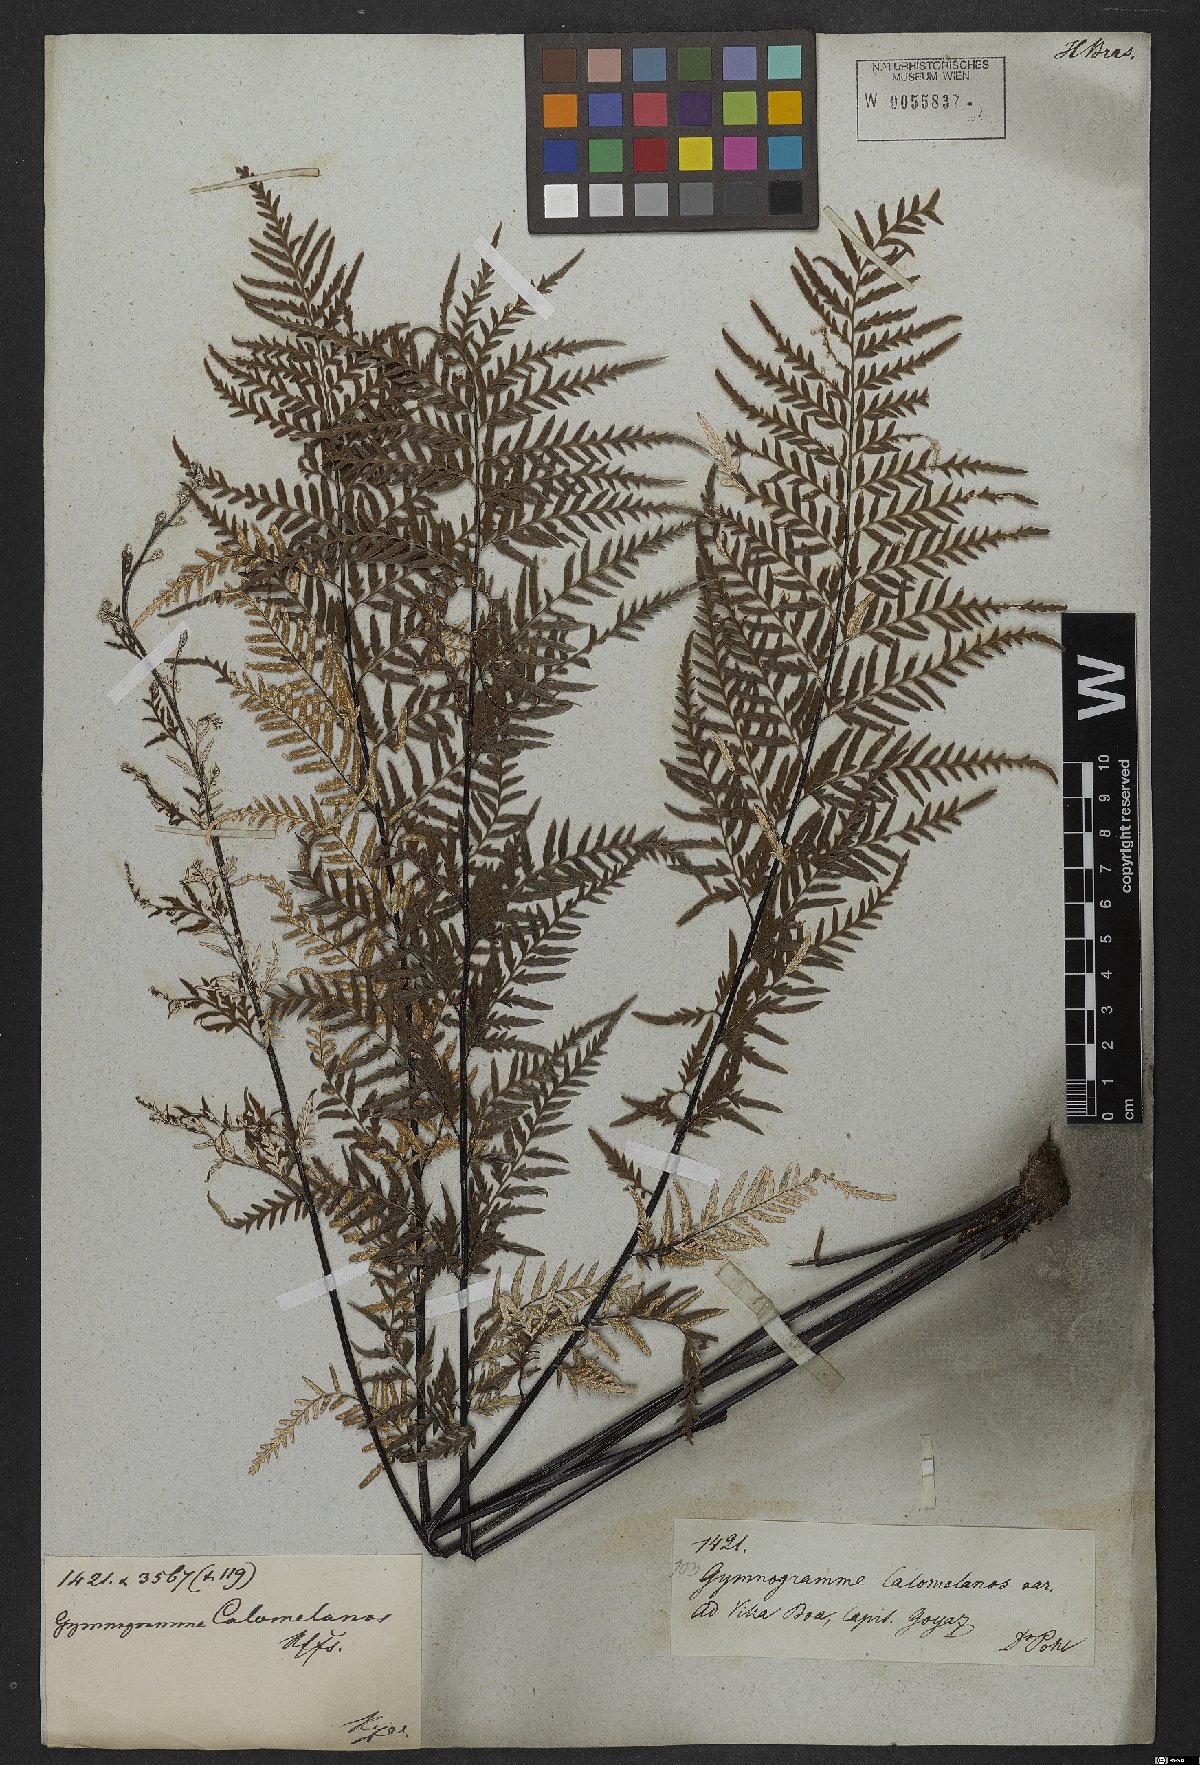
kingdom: Plantae
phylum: Tracheophyta
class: Polypodiopsida
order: Polypodiales
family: Pteridaceae
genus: Pityrogramma
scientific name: Pityrogramma calomelanos
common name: Dixie silverback fern
